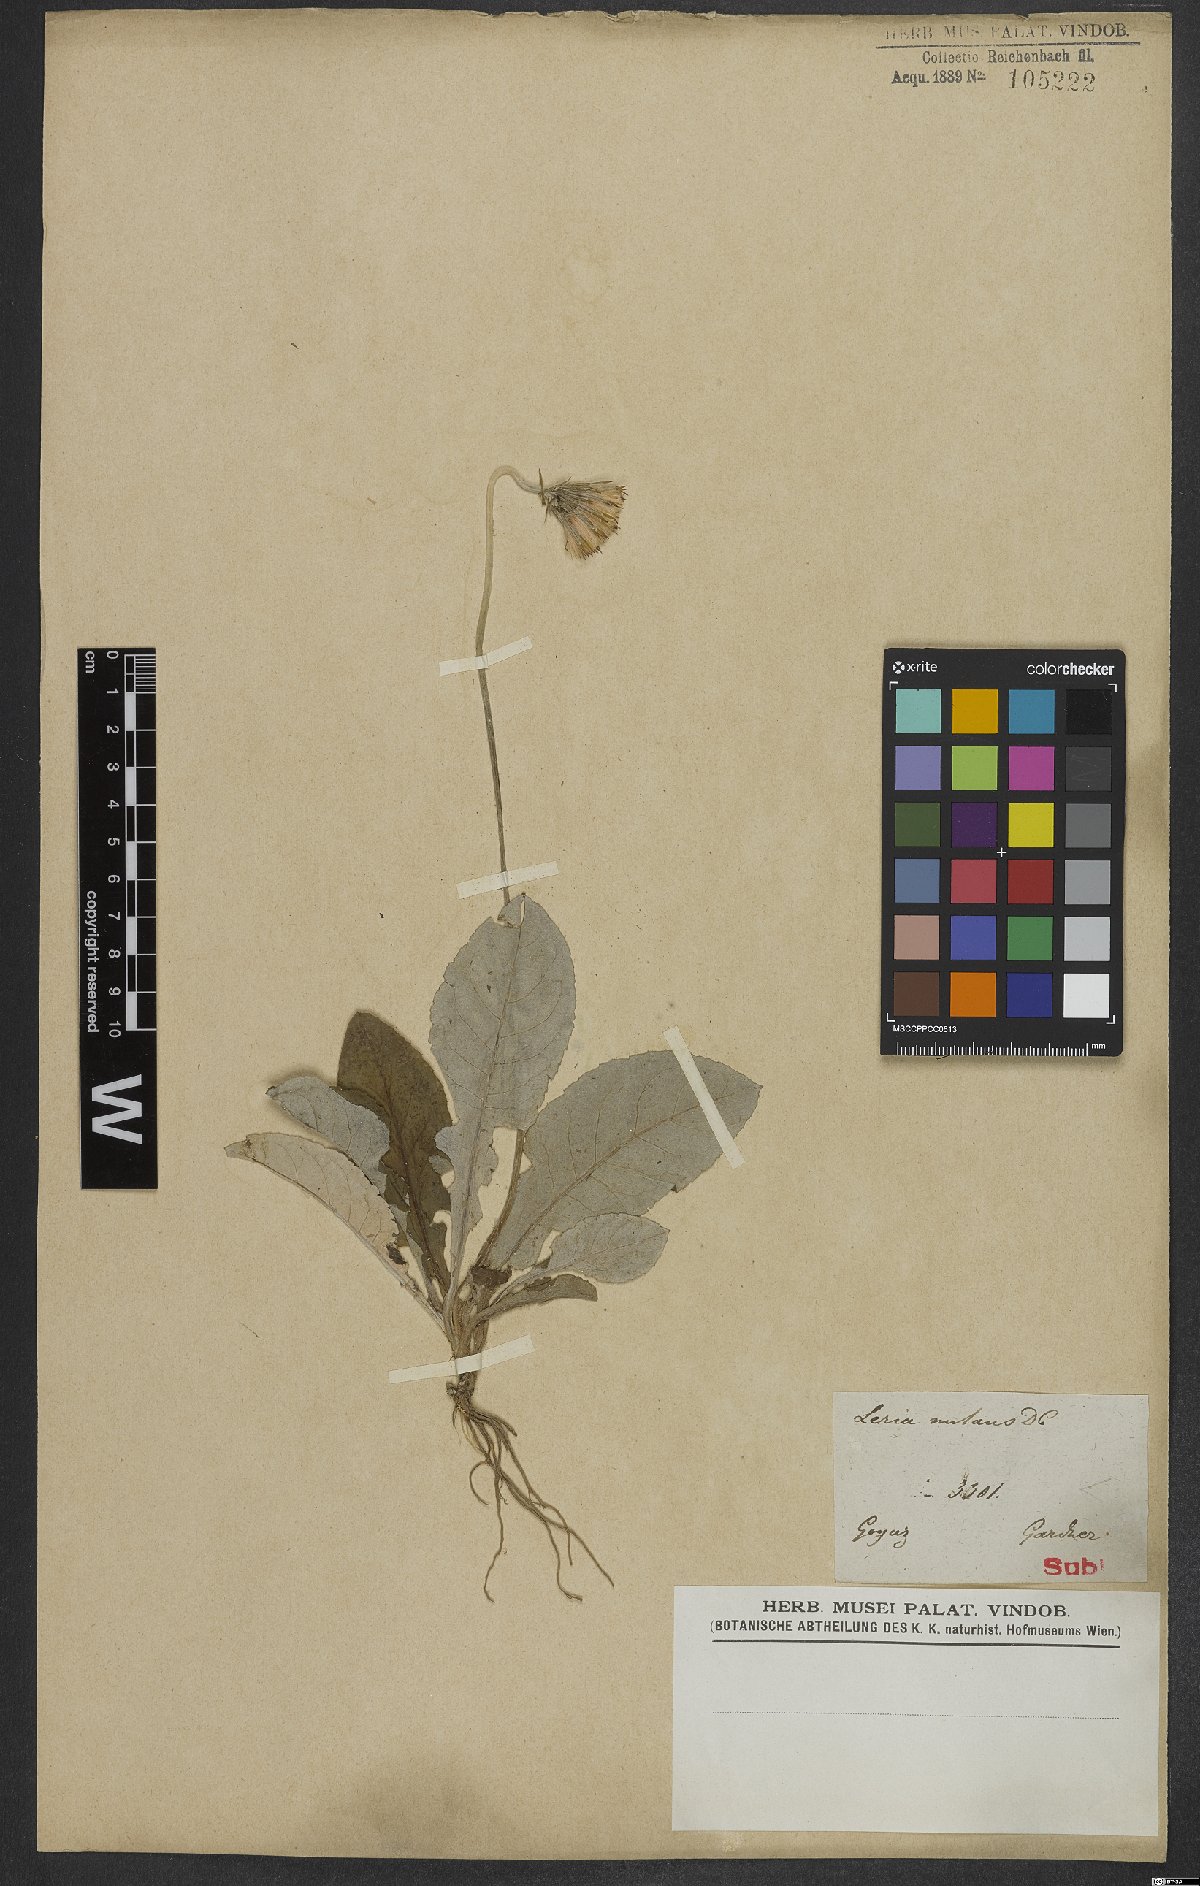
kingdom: Plantae
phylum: Tracheophyta
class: Magnoliopsida
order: Asterales
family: Asteraceae
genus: Chaptalia
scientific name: Chaptalia nutans
